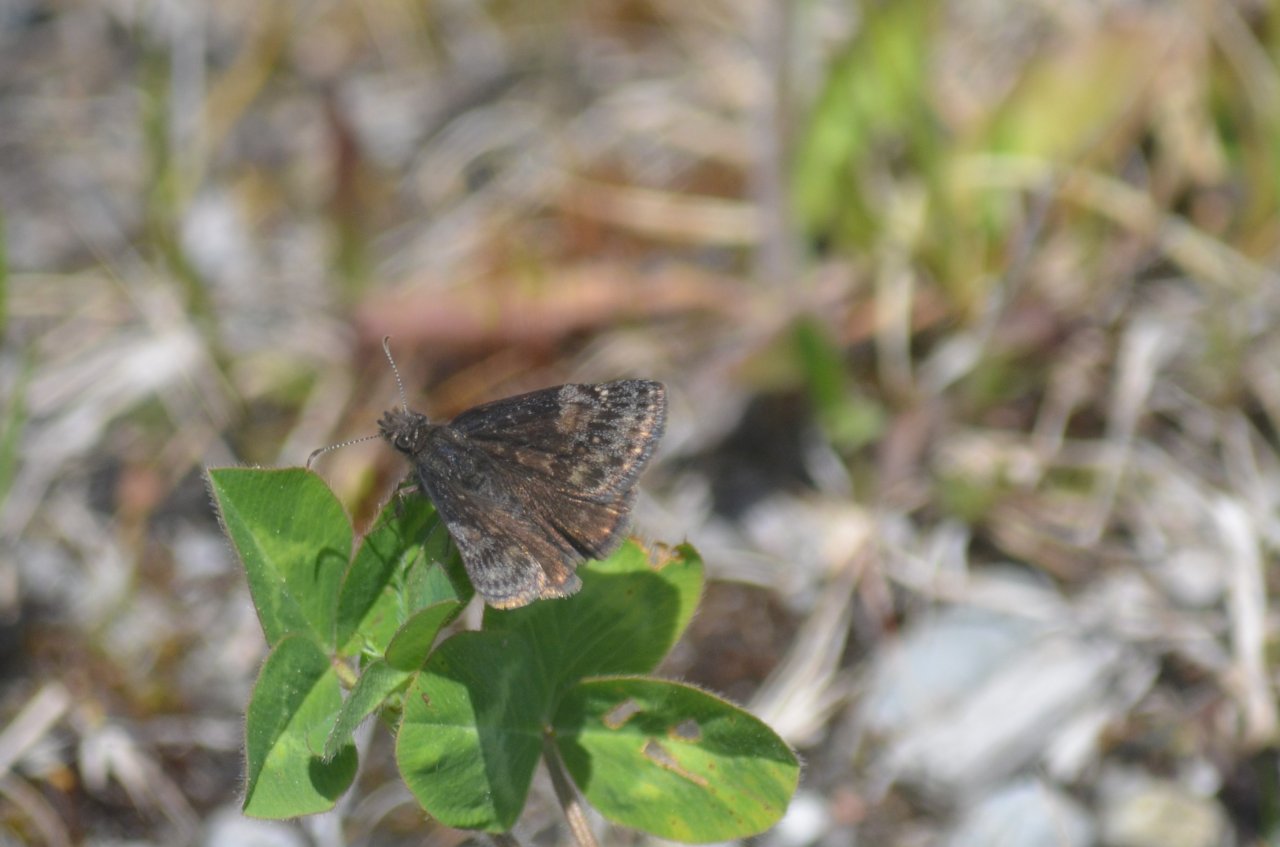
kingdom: Animalia
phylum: Arthropoda
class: Insecta
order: Lepidoptera
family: Hesperiidae
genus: Erynnis
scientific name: Erynnis
